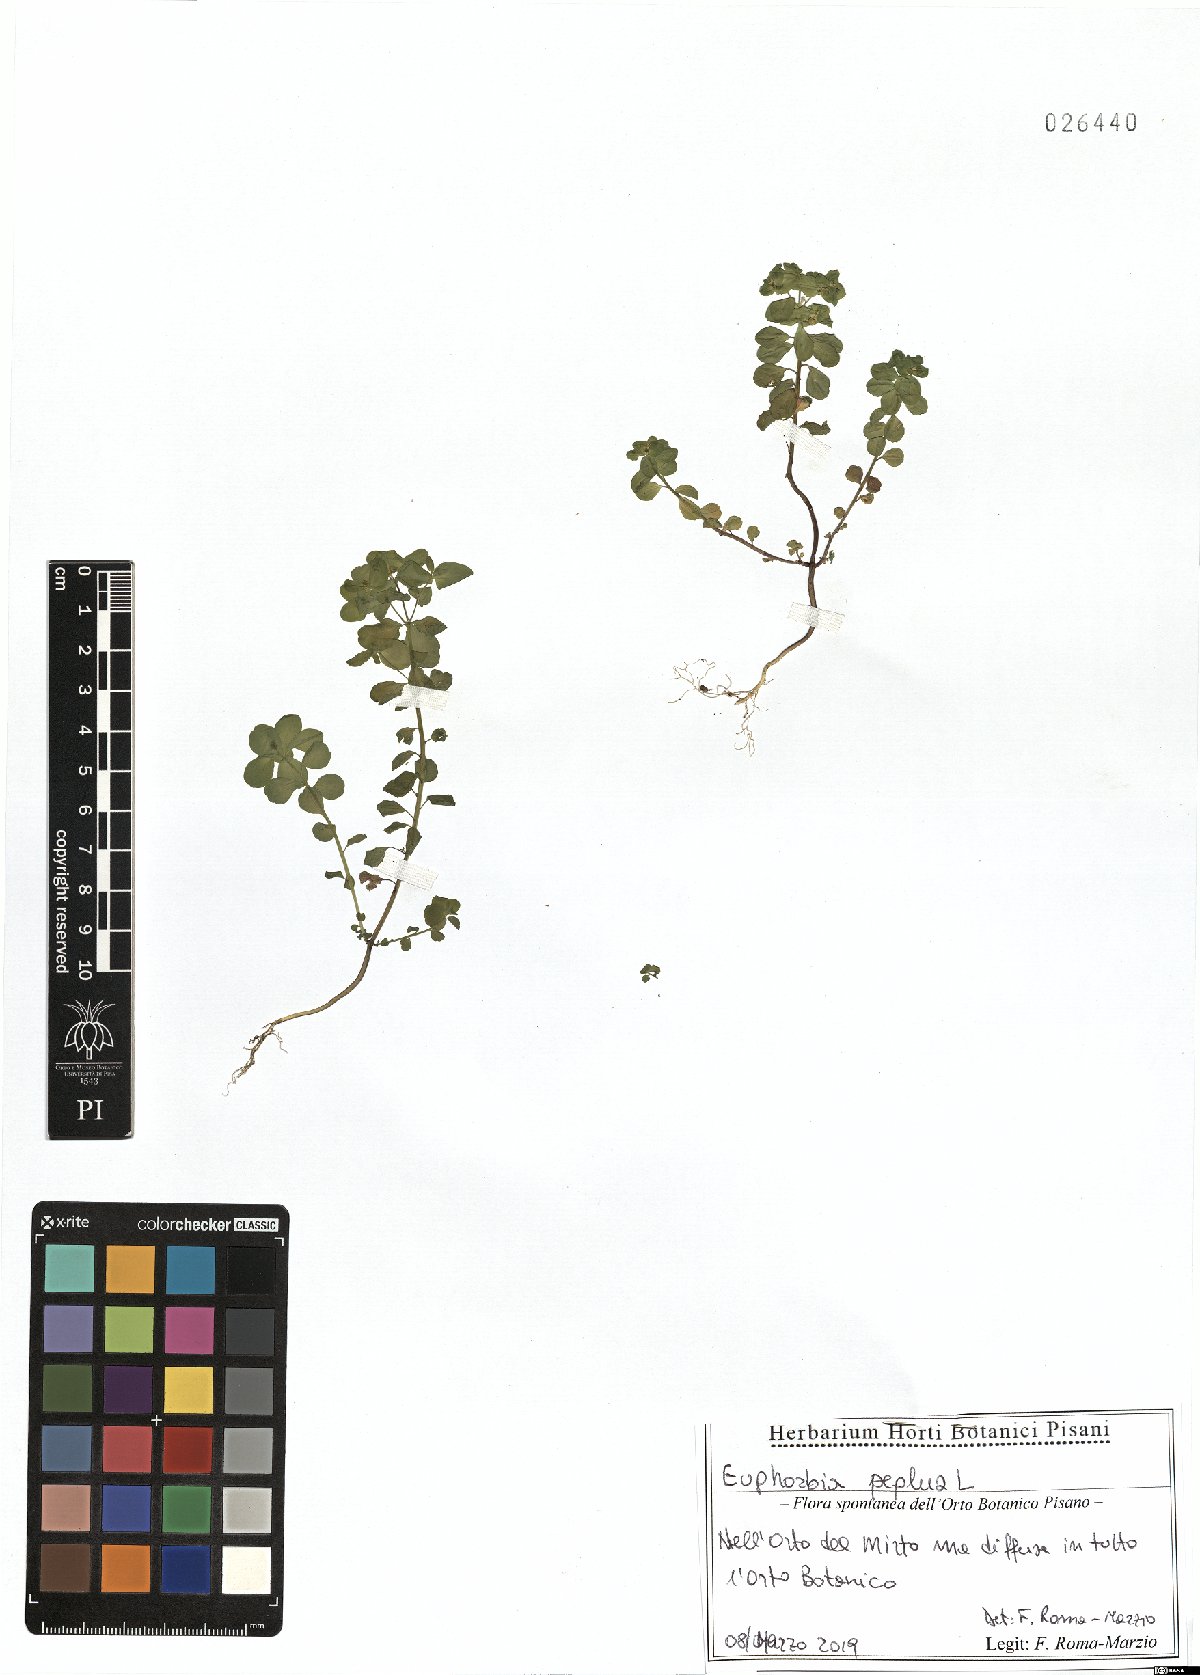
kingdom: Plantae
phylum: Tracheophyta
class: Magnoliopsida
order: Malpighiales
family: Euphorbiaceae
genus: Euphorbia
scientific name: Euphorbia peplus
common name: Petty spurge
